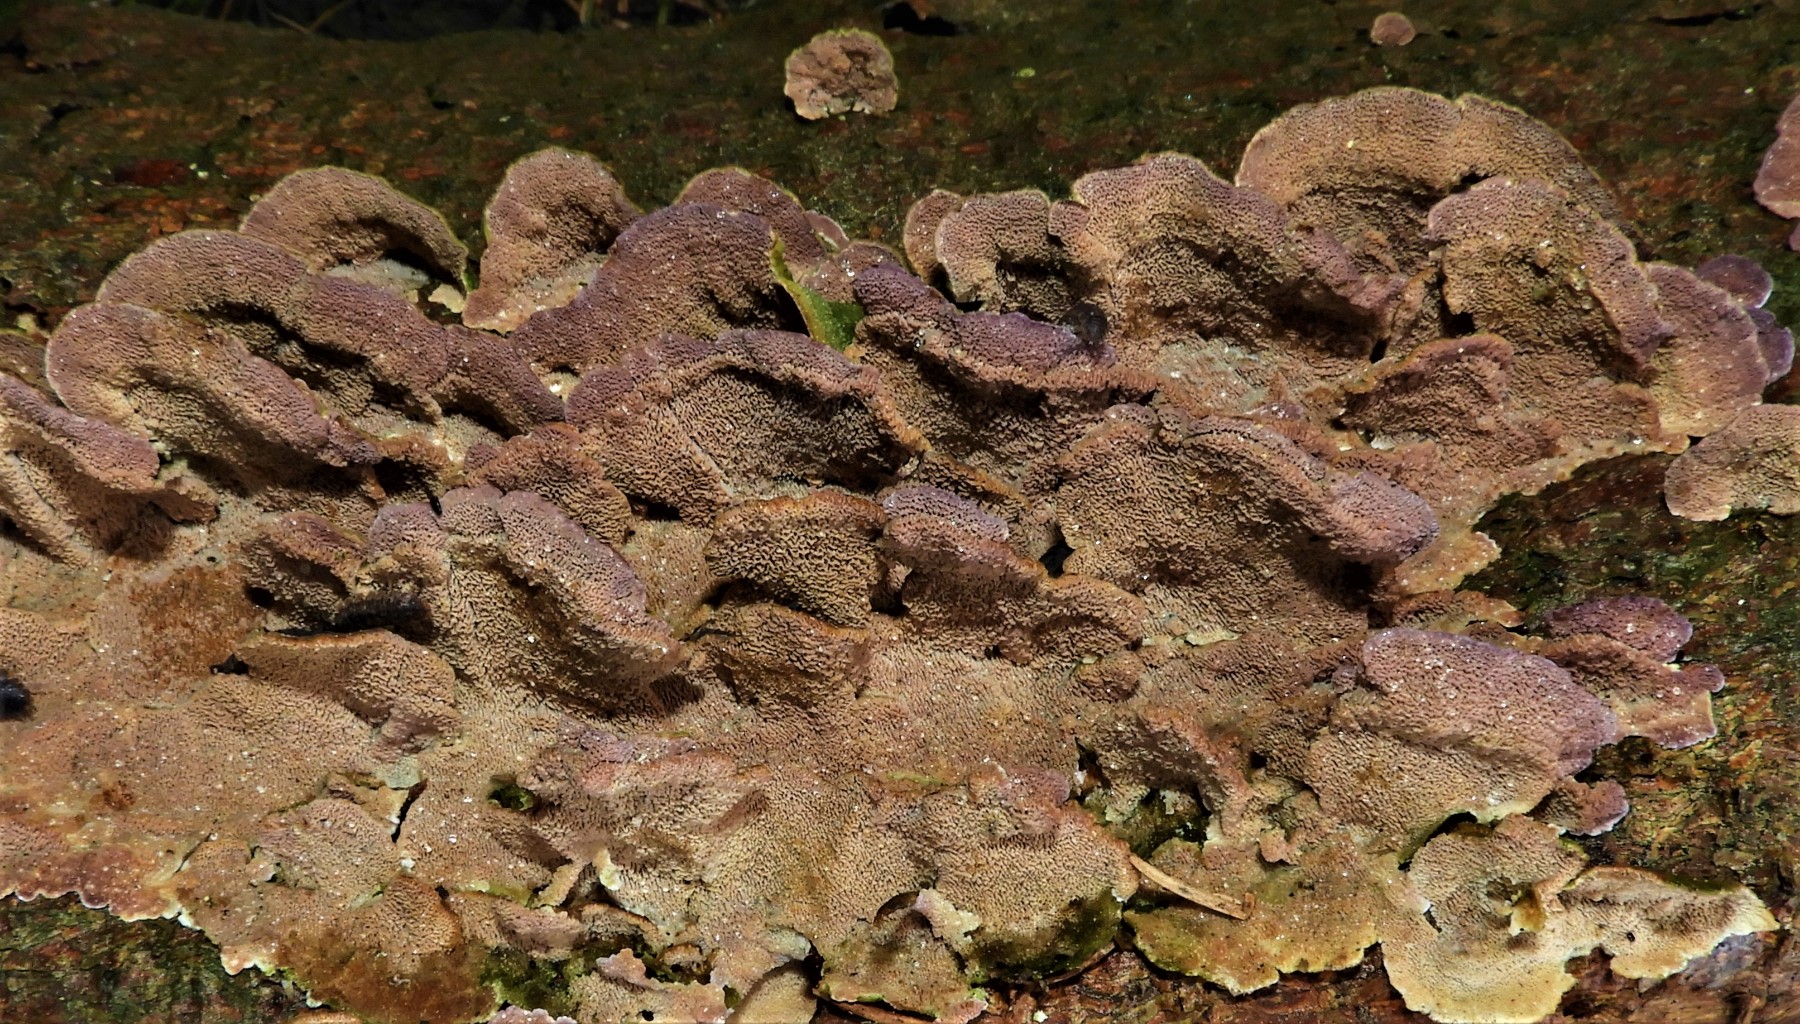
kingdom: Fungi
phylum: Basidiomycota
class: Agaricomycetes
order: Hymenochaetales
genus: Trichaptum
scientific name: Trichaptum abietinum
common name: almindelig violporesvamp
